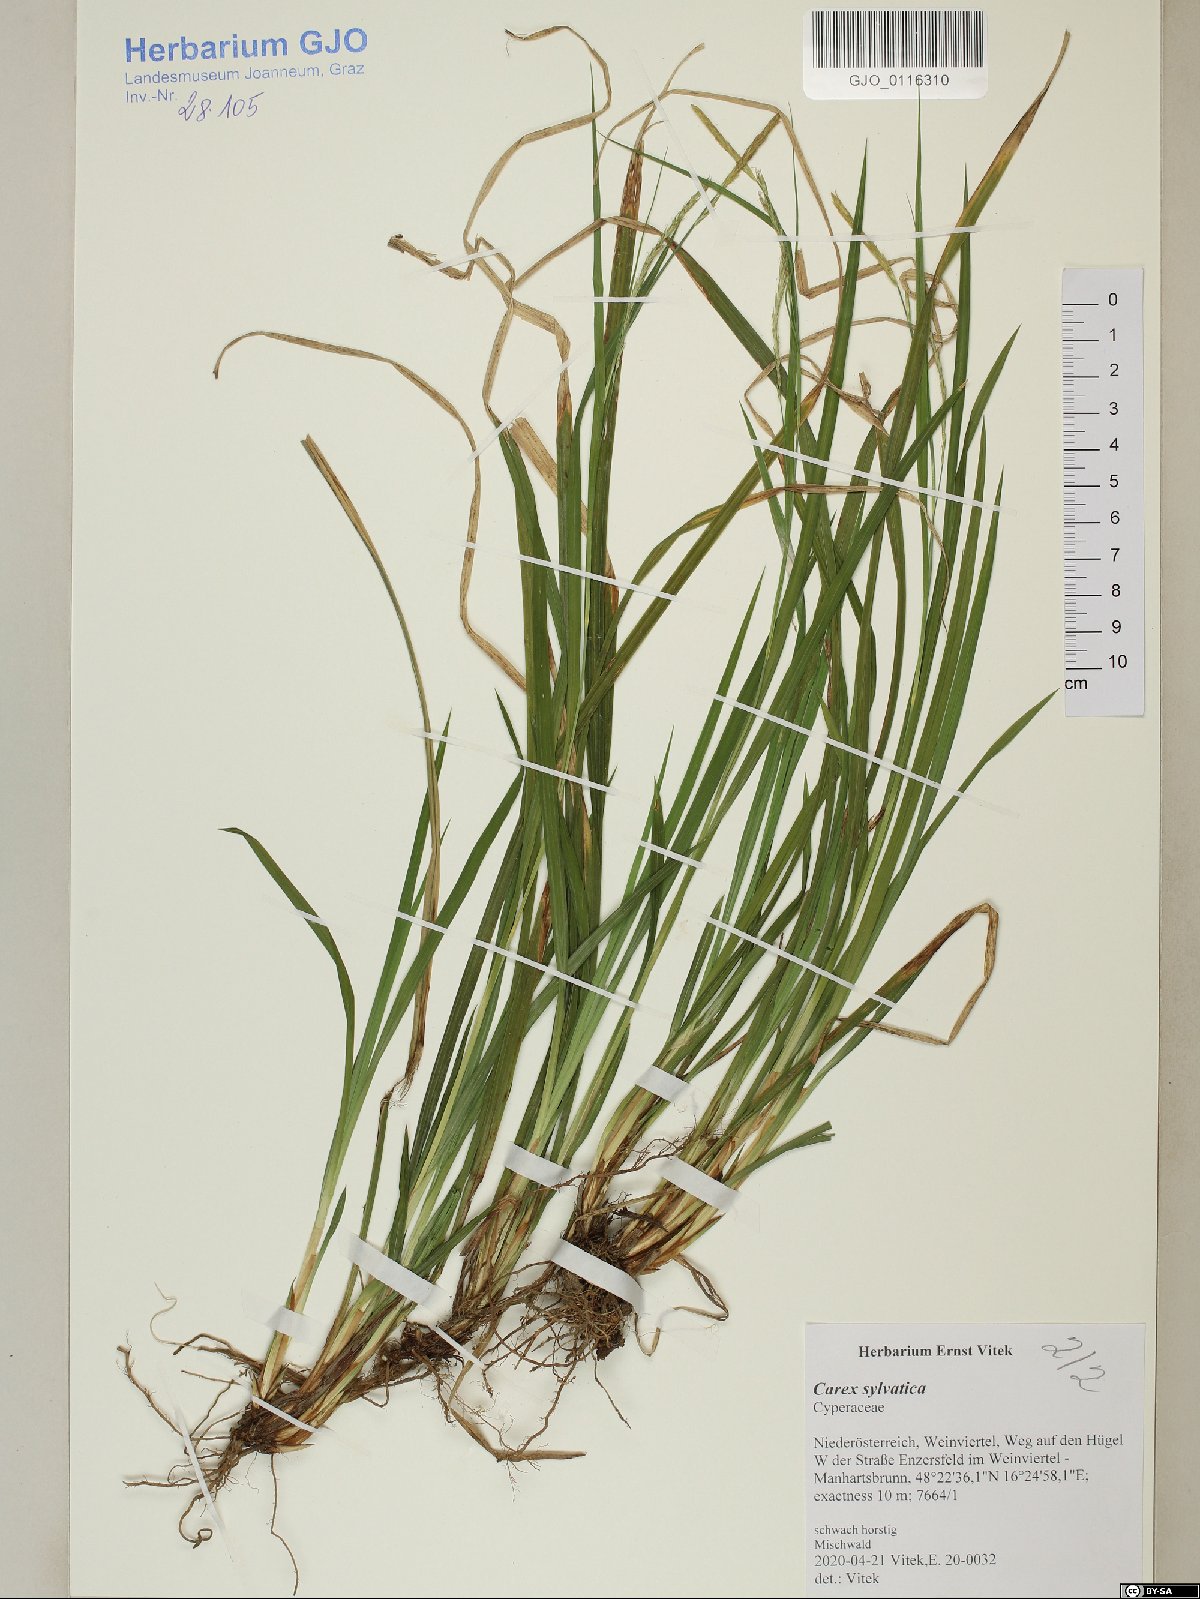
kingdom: Plantae
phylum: Tracheophyta
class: Liliopsida
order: Poales
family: Cyperaceae
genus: Carex
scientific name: Carex sylvatica
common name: Wood-sedge
